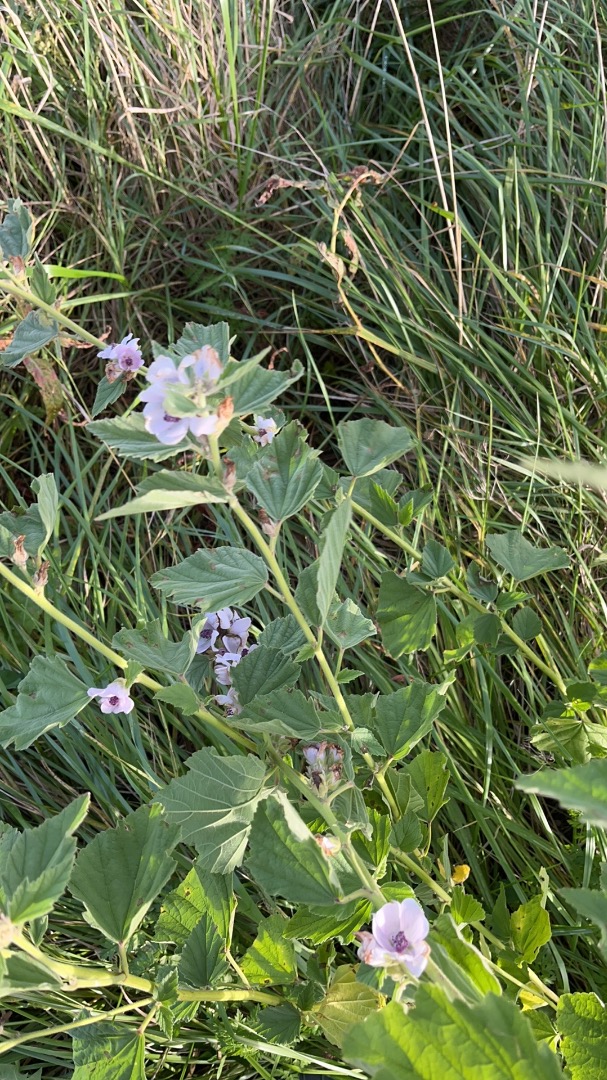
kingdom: Plantae
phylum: Tracheophyta
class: Magnoliopsida
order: Malvales
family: Malvaceae
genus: Althaea
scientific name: Althaea officinalis
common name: Lægestokrose
